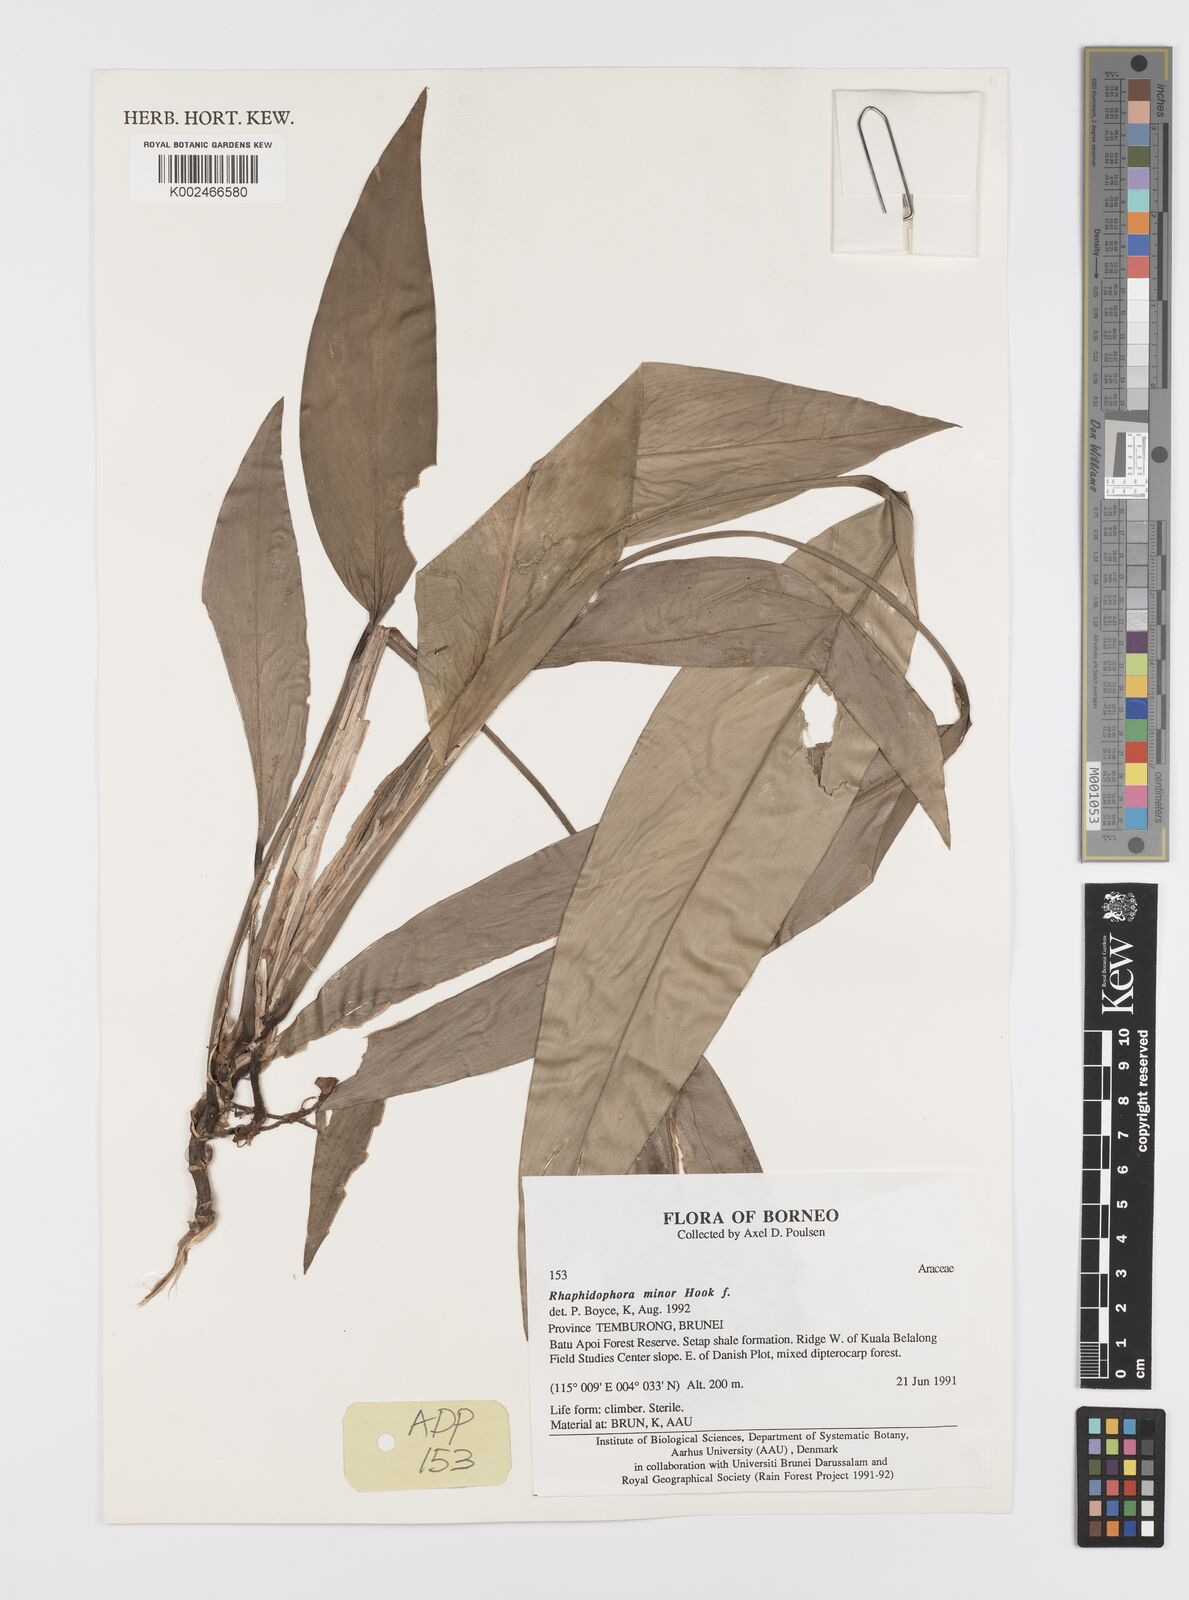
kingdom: Plantae
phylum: Tracheophyta
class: Liliopsida
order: Alismatales
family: Araceae
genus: Scindapsus
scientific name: Scindapsus coriaceus
